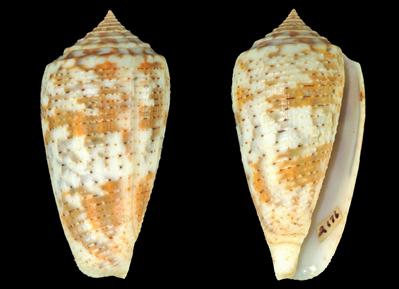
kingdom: Animalia
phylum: Mollusca
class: Gastropoda
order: Neogastropoda
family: Conidae
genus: Conus
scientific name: Conus arafurensis
